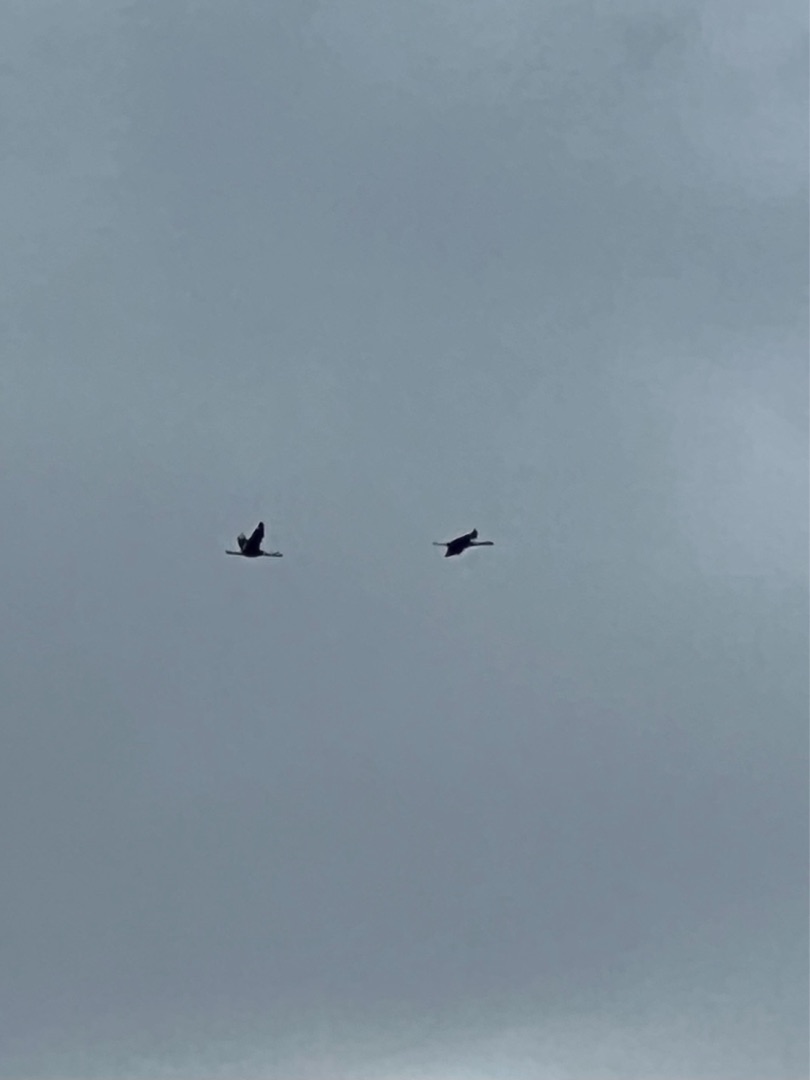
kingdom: Animalia
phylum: Chordata
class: Aves
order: Gruiformes
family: Gruidae
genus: Grus
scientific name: Grus grus
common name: Trane
